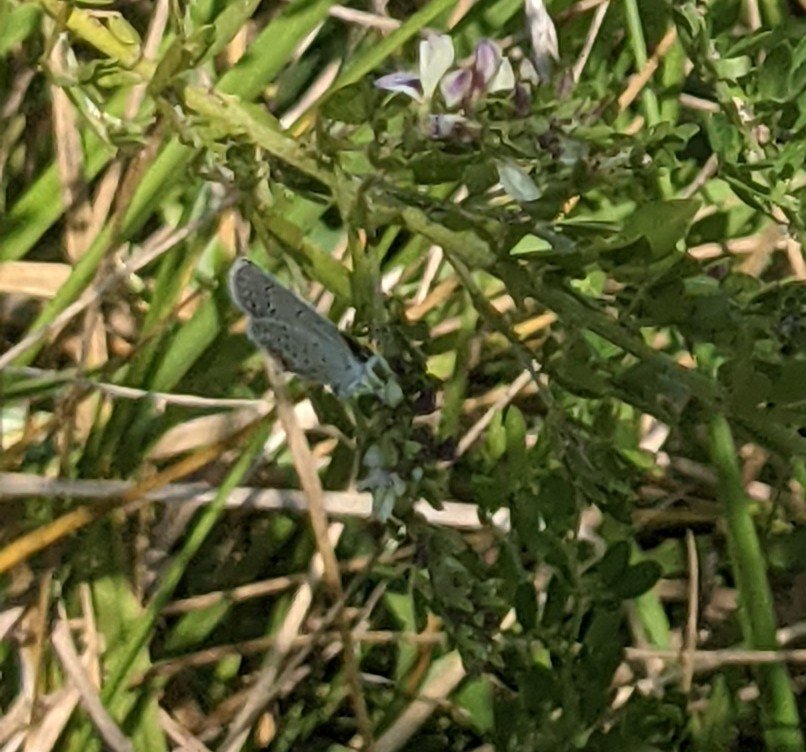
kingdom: Animalia
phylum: Arthropoda
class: Insecta
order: Lepidoptera
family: Lycaenidae
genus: Elkalyce
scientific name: Elkalyce comyntas
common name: Eastern Tailed-Blue
